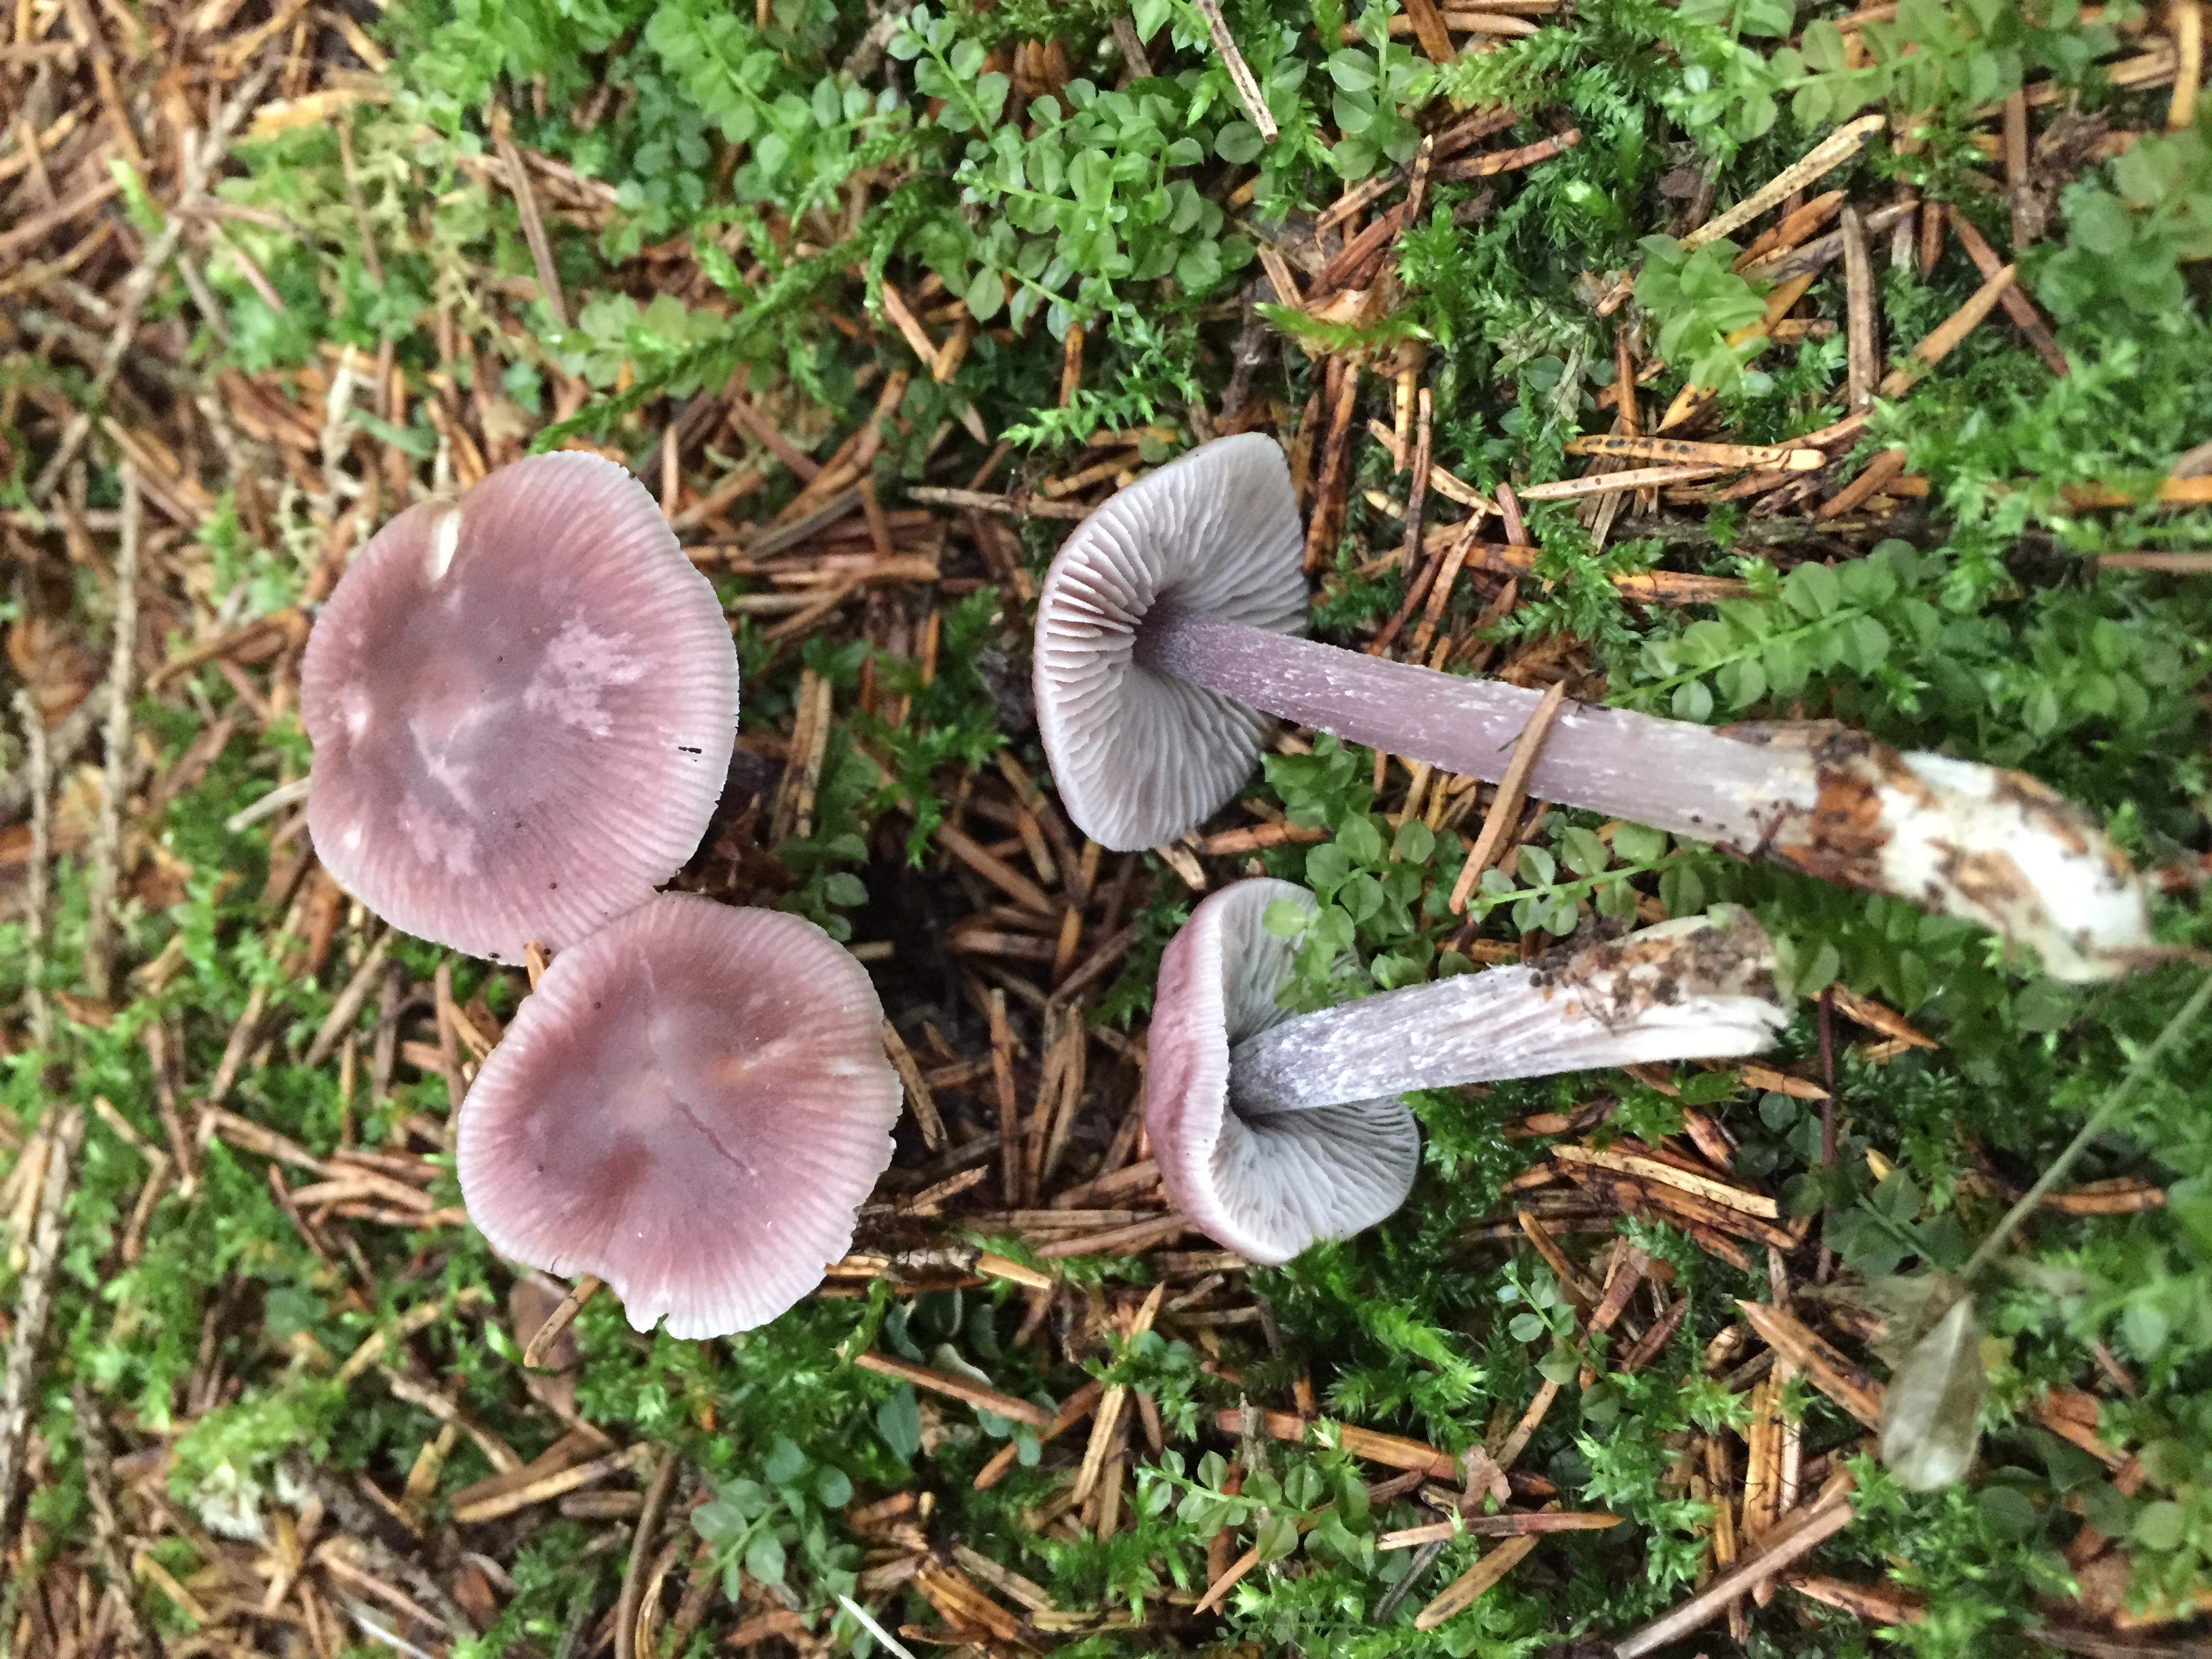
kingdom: Fungi
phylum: Basidiomycota
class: Agaricomycetes
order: Agaricales
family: Mycenaceae
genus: Mycena
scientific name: Mycena pura
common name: Lilac bonnet
